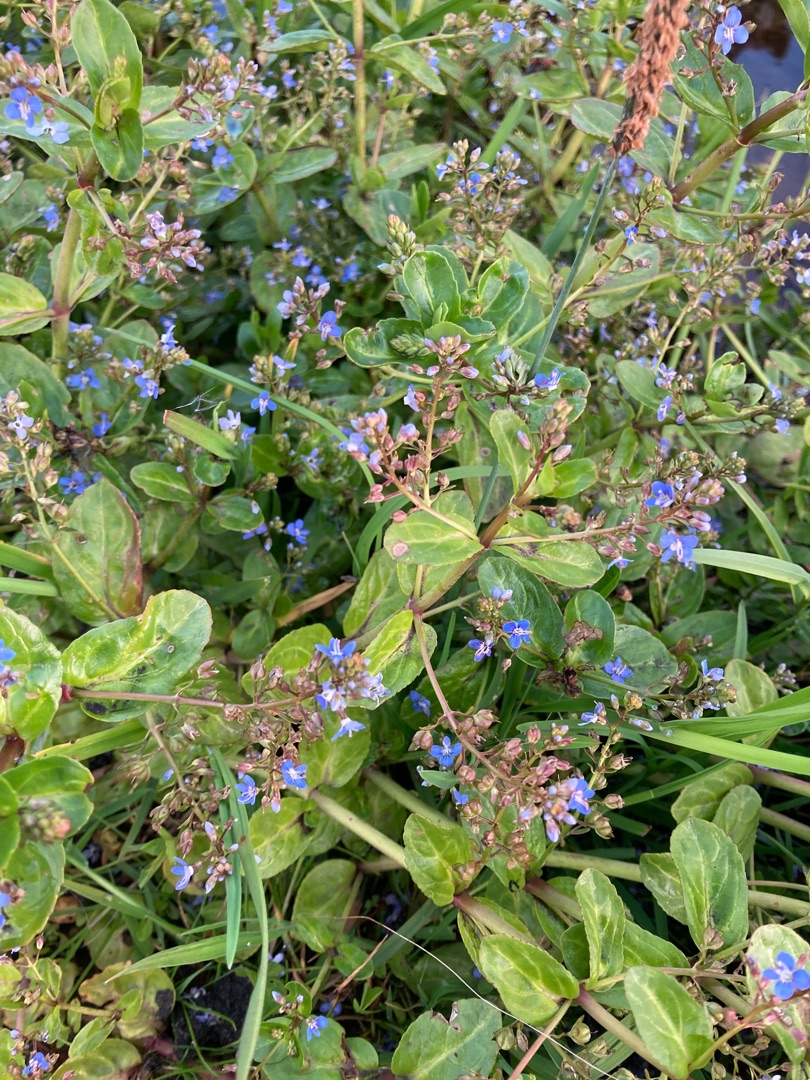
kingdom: Plantae
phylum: Tracheophyta
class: Magnoliopsida
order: Lamiales
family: Plantaginaceae
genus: Veronica
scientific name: Veronica beccabunga
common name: Tykbladet ærenpris
